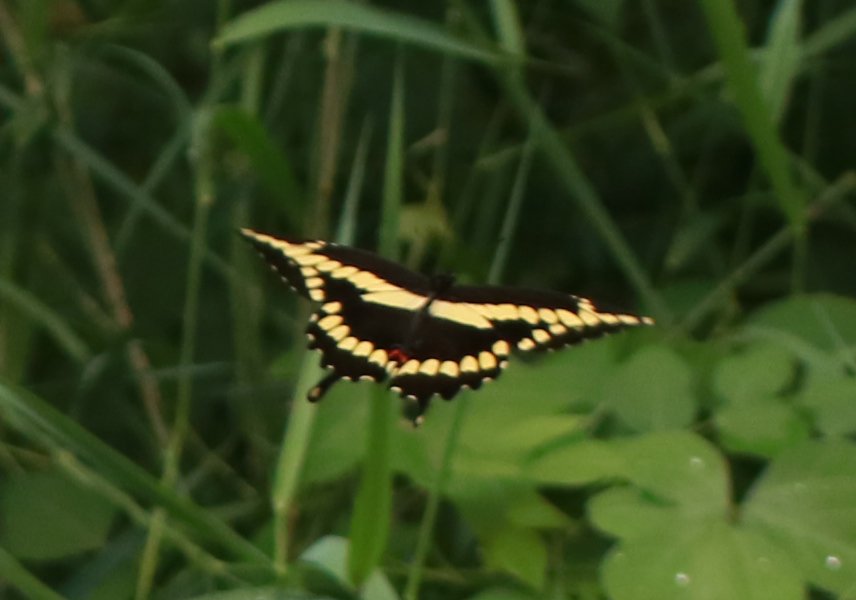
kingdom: Animalia
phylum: Arthropoda
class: Insecta
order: Lepidoptera
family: Papilionidae
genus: Papilio
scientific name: Papilio cresphontes
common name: Eastern Giant Swallowtail
